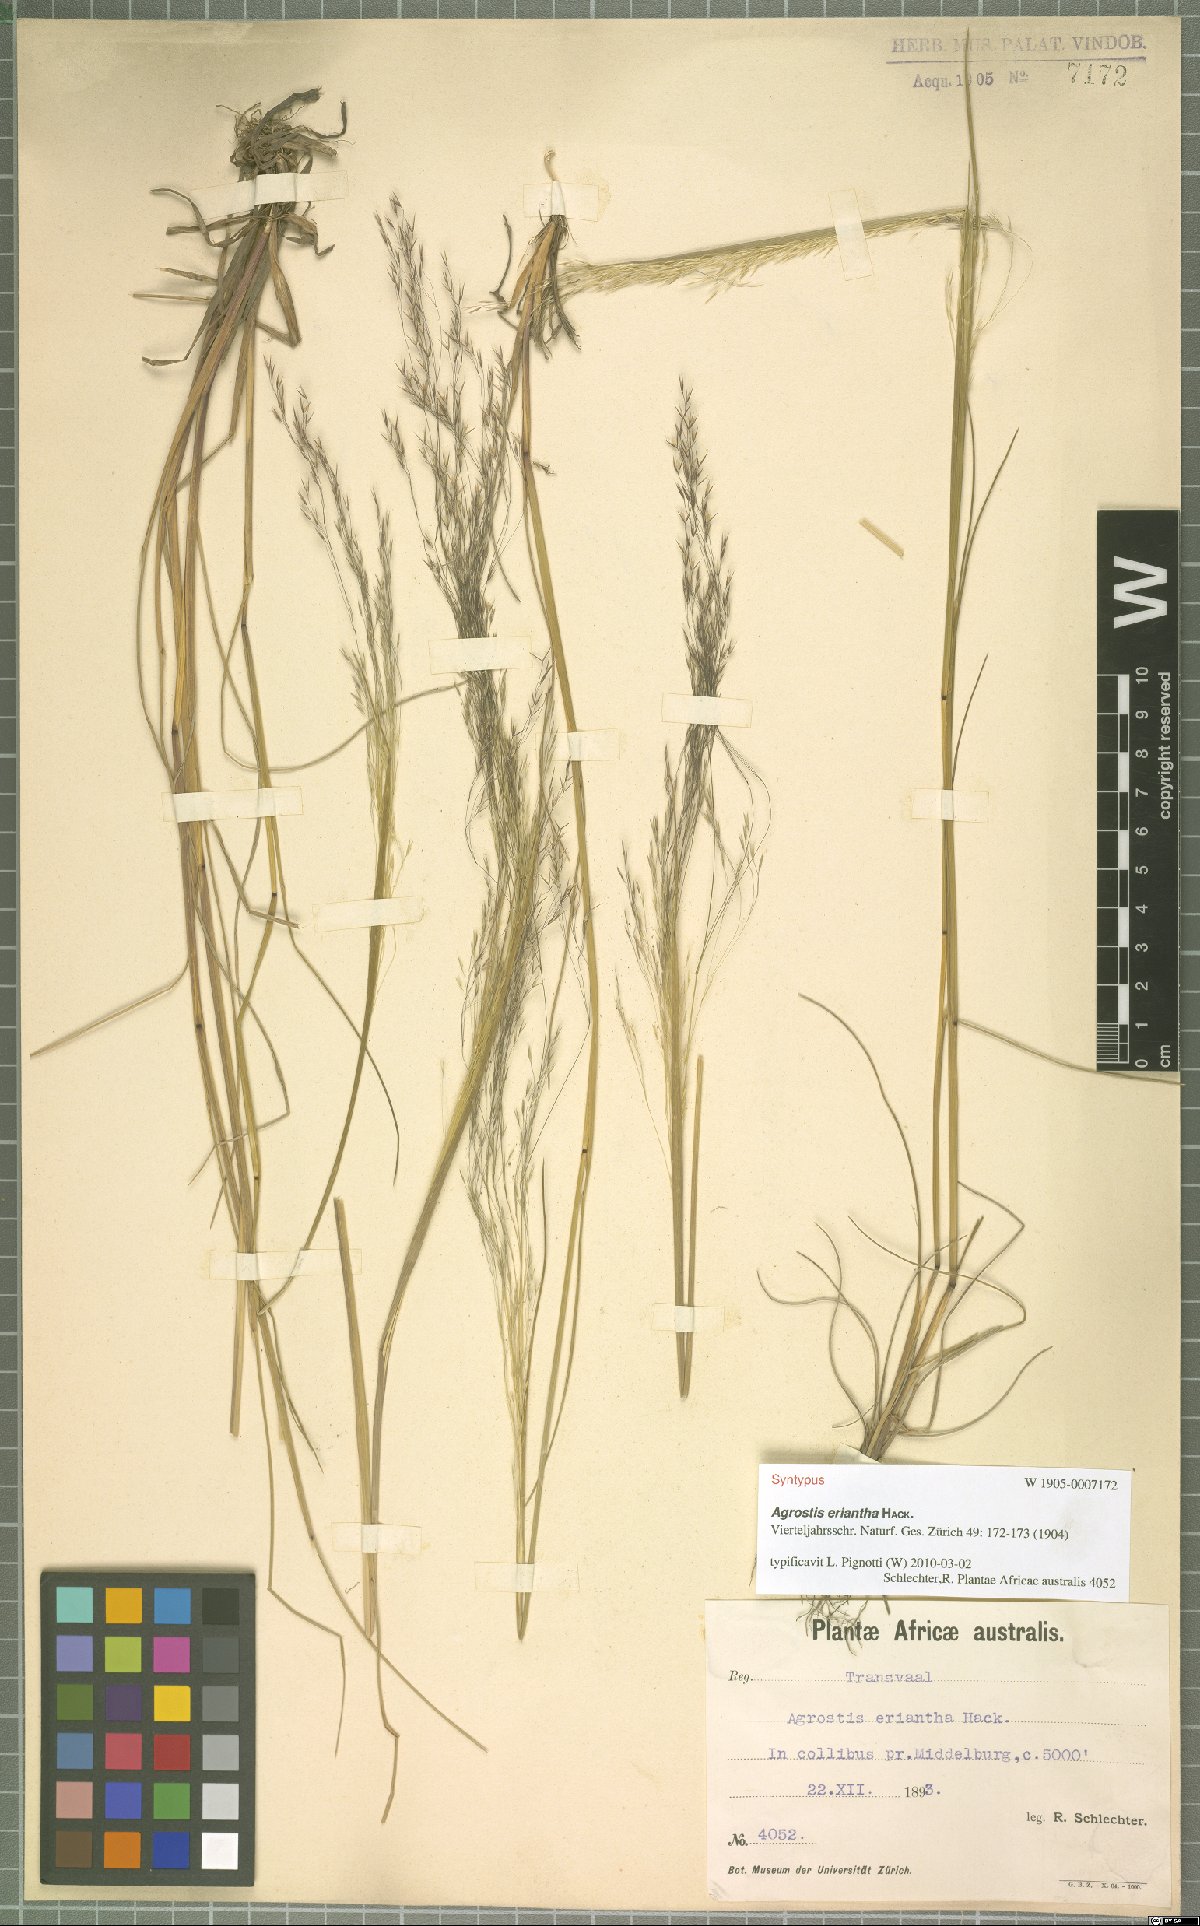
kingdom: Plantae
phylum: Tracheophyta
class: Liliopsida
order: Poales
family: Poaceae
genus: Lachnagrostis
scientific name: Lachnagrostis eriantha
